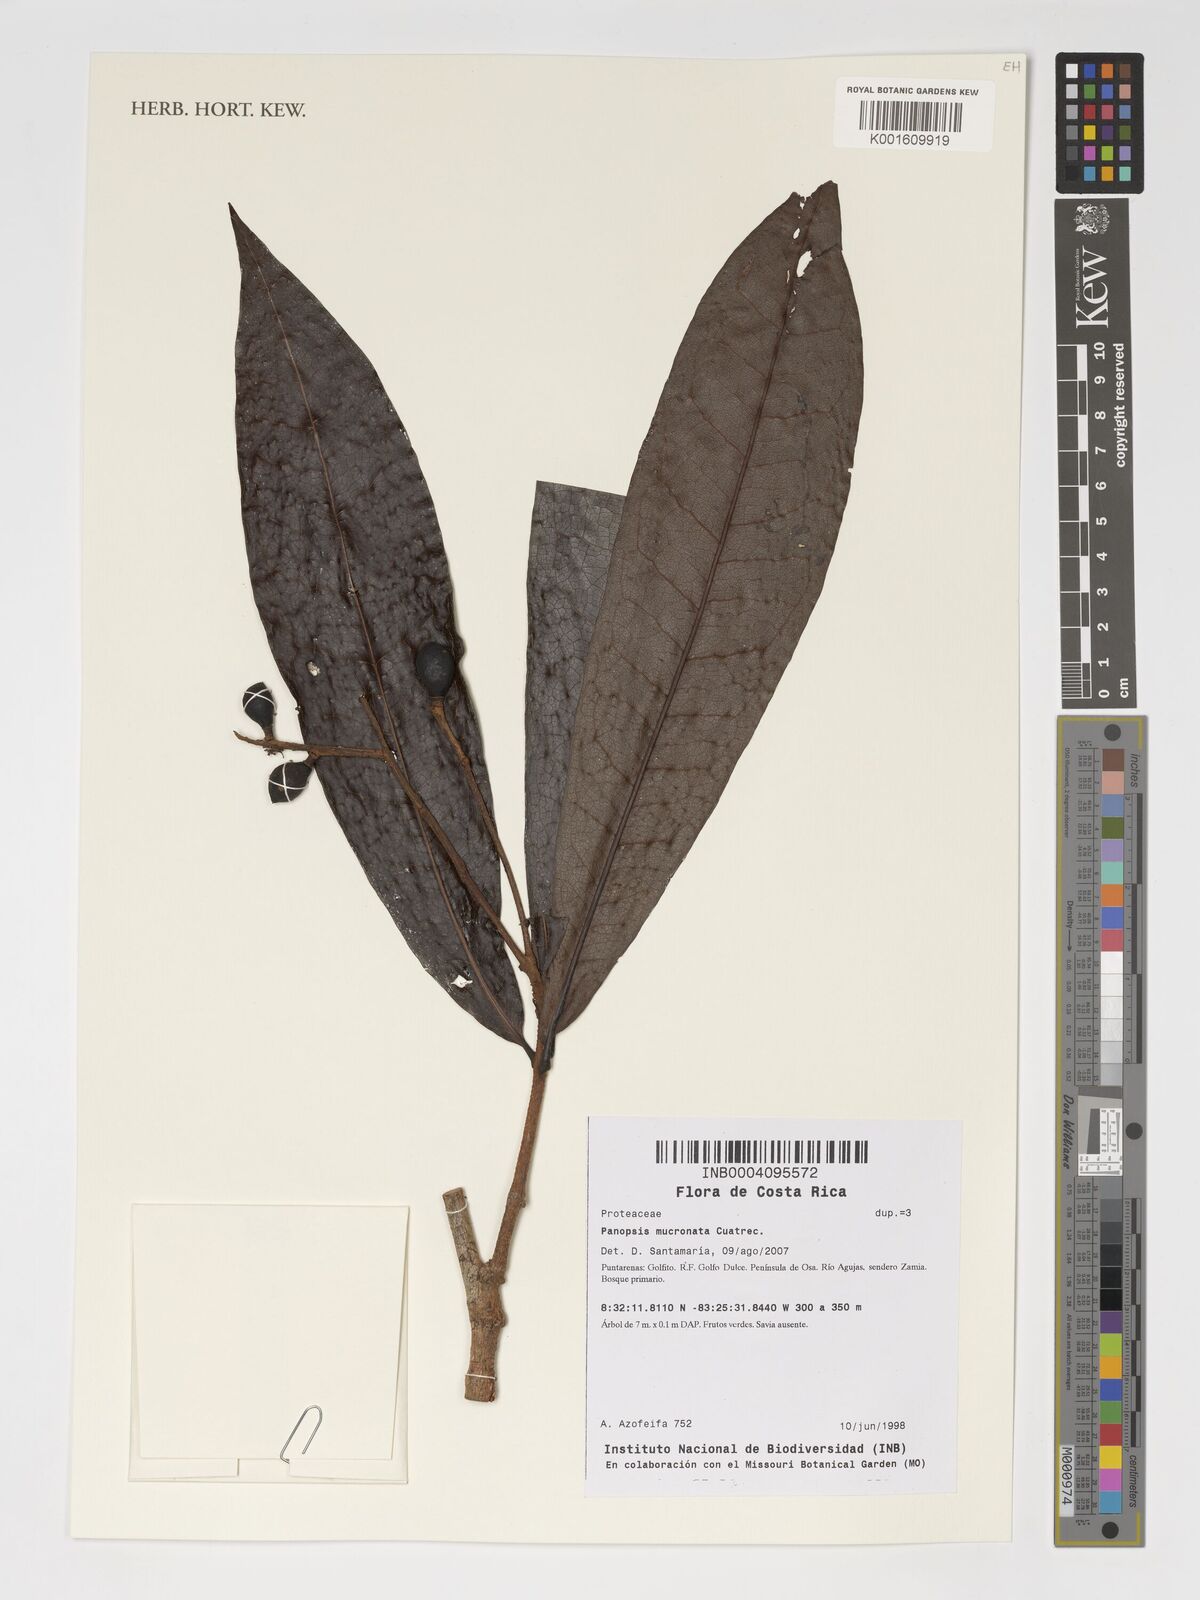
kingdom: Plantae
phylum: Tracheophyta
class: Magnoliopsida
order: Proteales
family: Proteaceae
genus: Panopsis
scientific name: Panopsis mucronata
